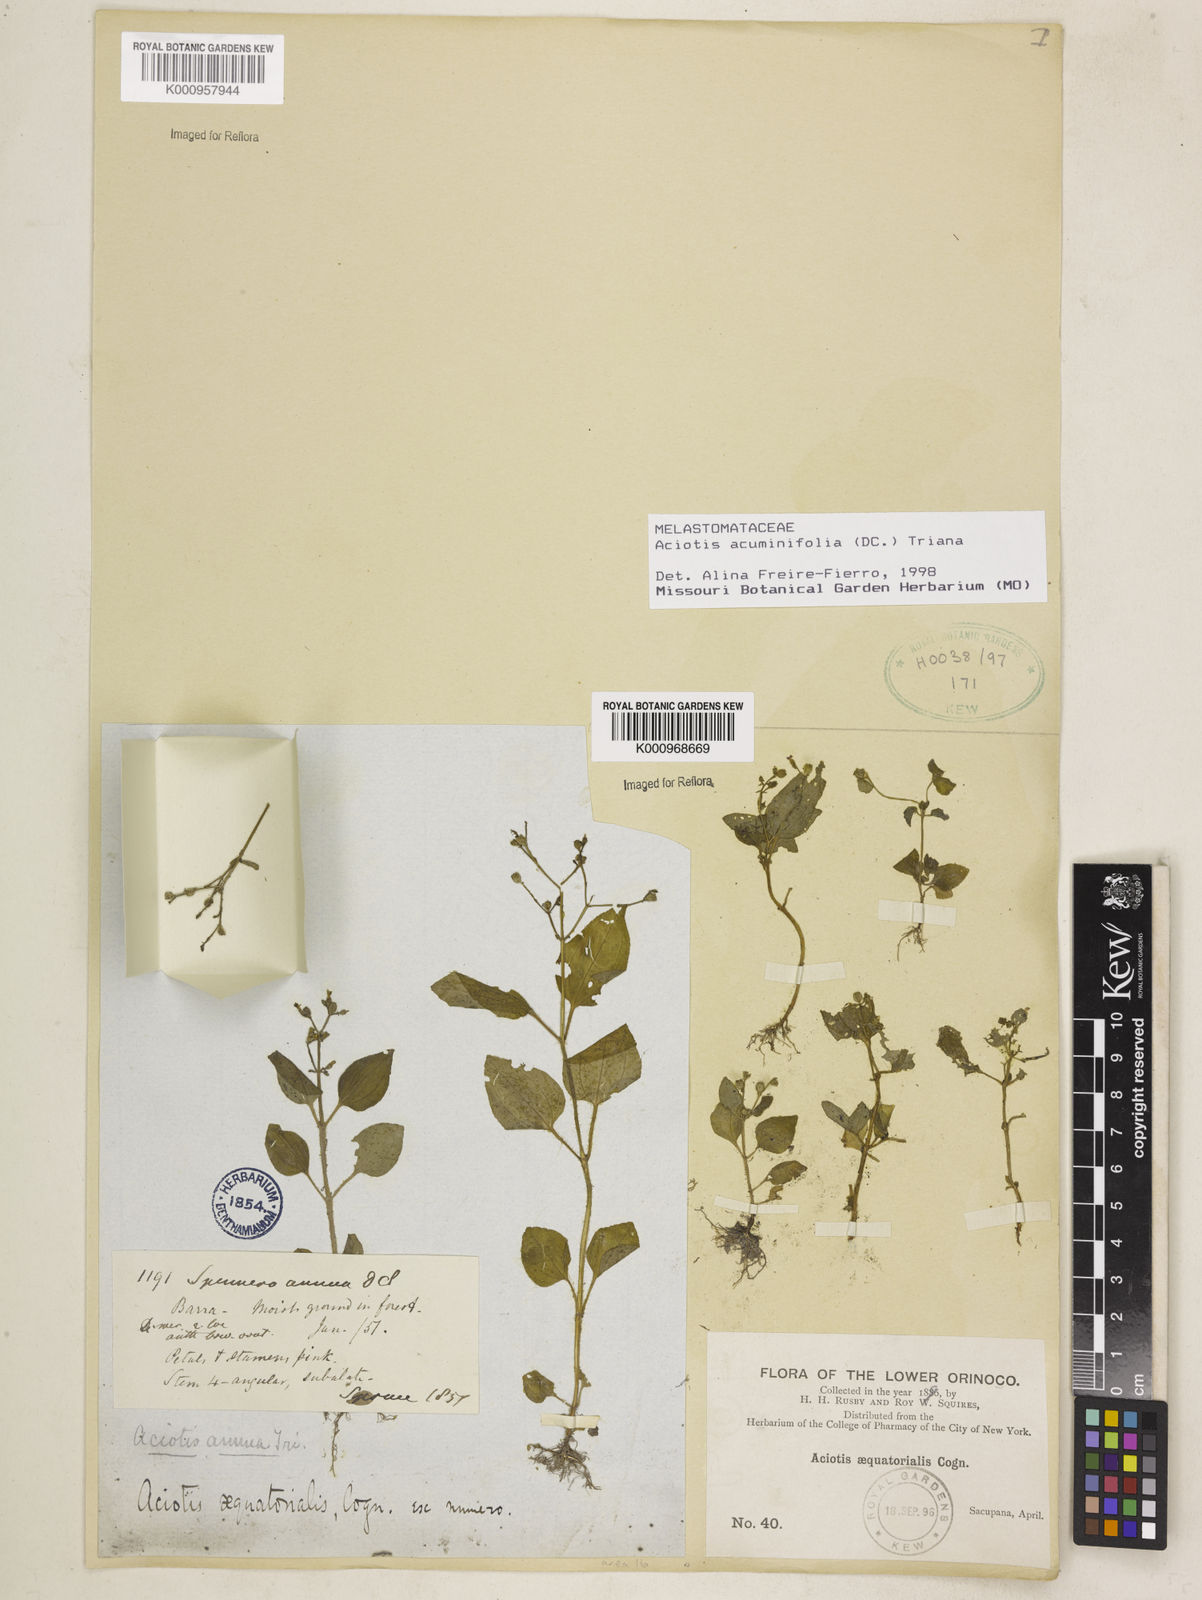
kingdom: Plantae
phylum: Tracheophyta
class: Magnoliopsida
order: Myrtales
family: Melastomataceae
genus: Aciotis
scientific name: Aciotis acuminifolia
